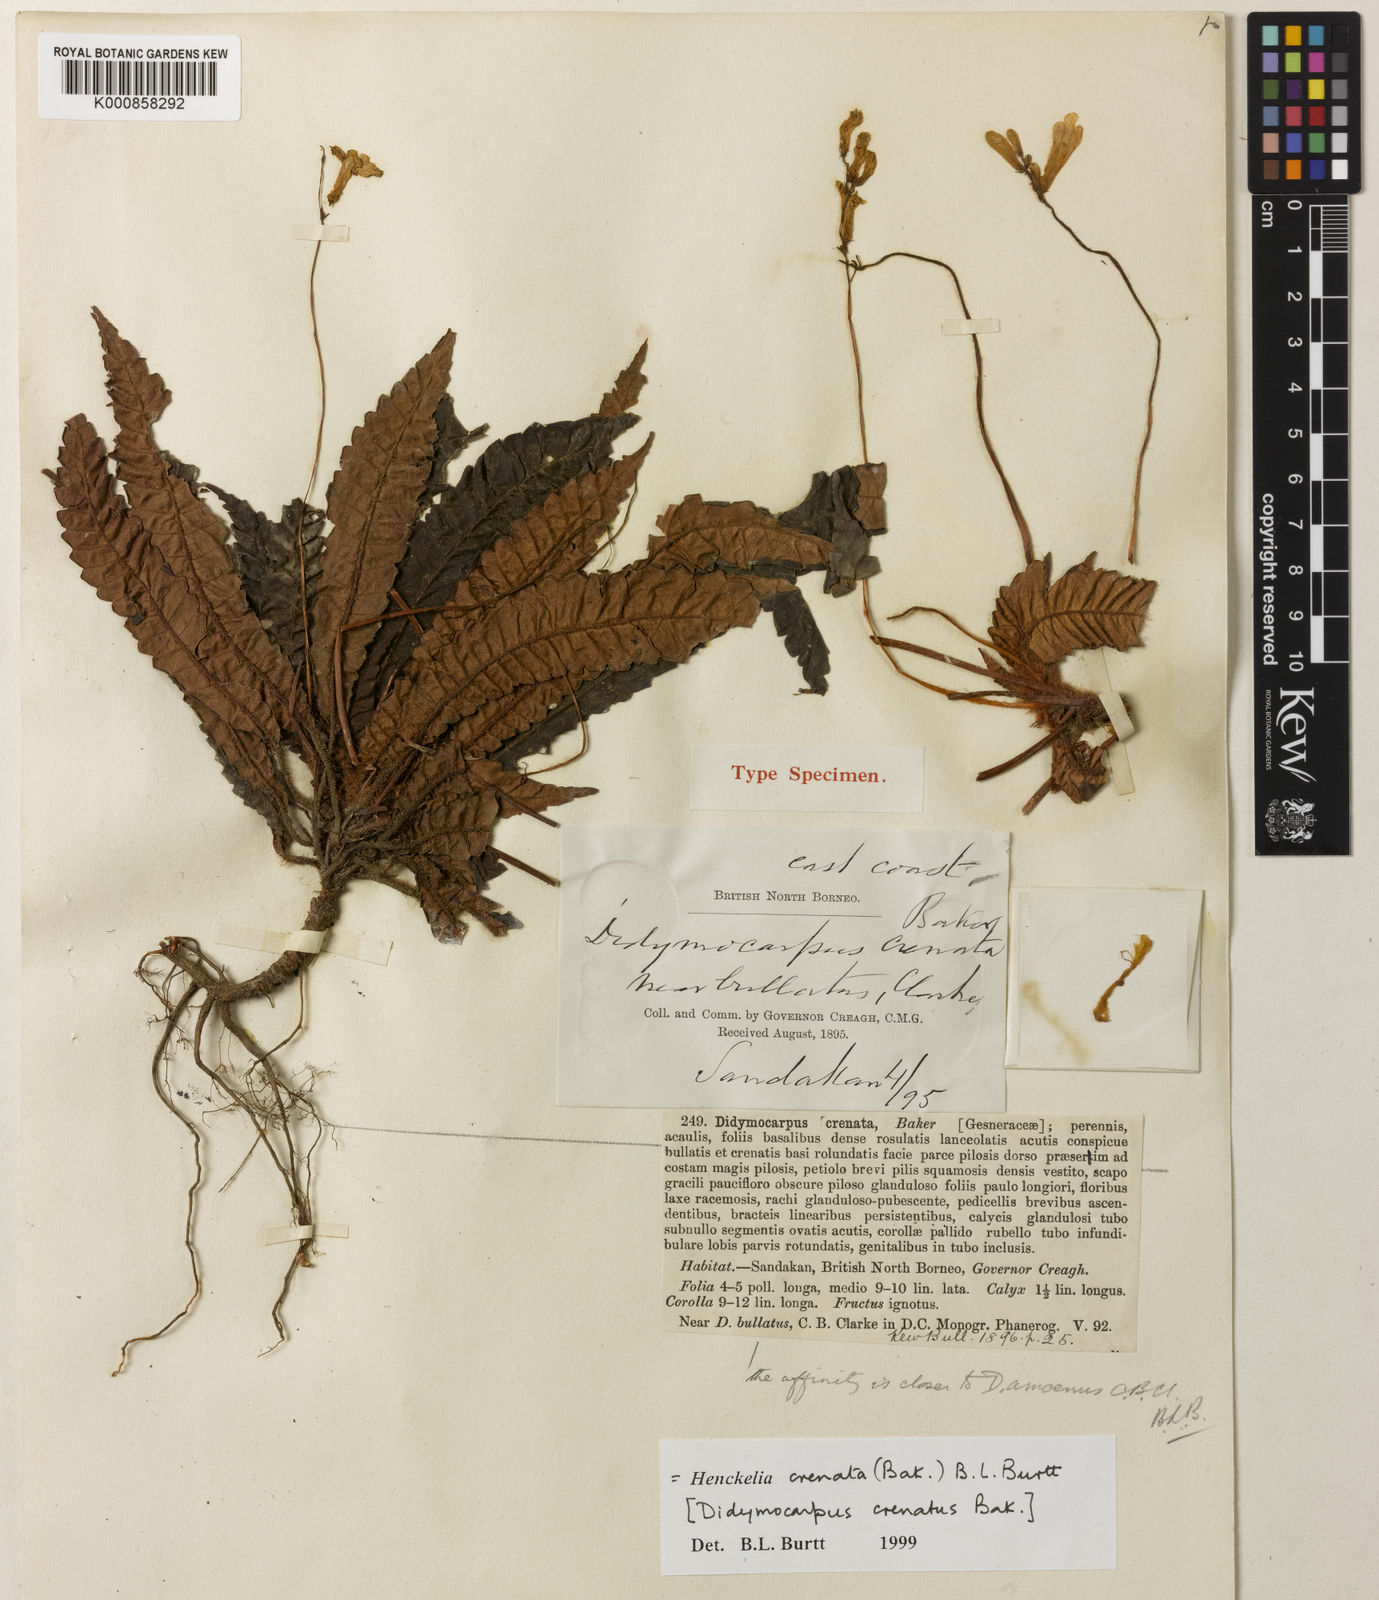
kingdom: Plantae
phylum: Tracheophyta
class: Magnoliopsida
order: Lamiales
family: Gesneriaceae
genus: Codonoboea
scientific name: Codonoboea crenata
